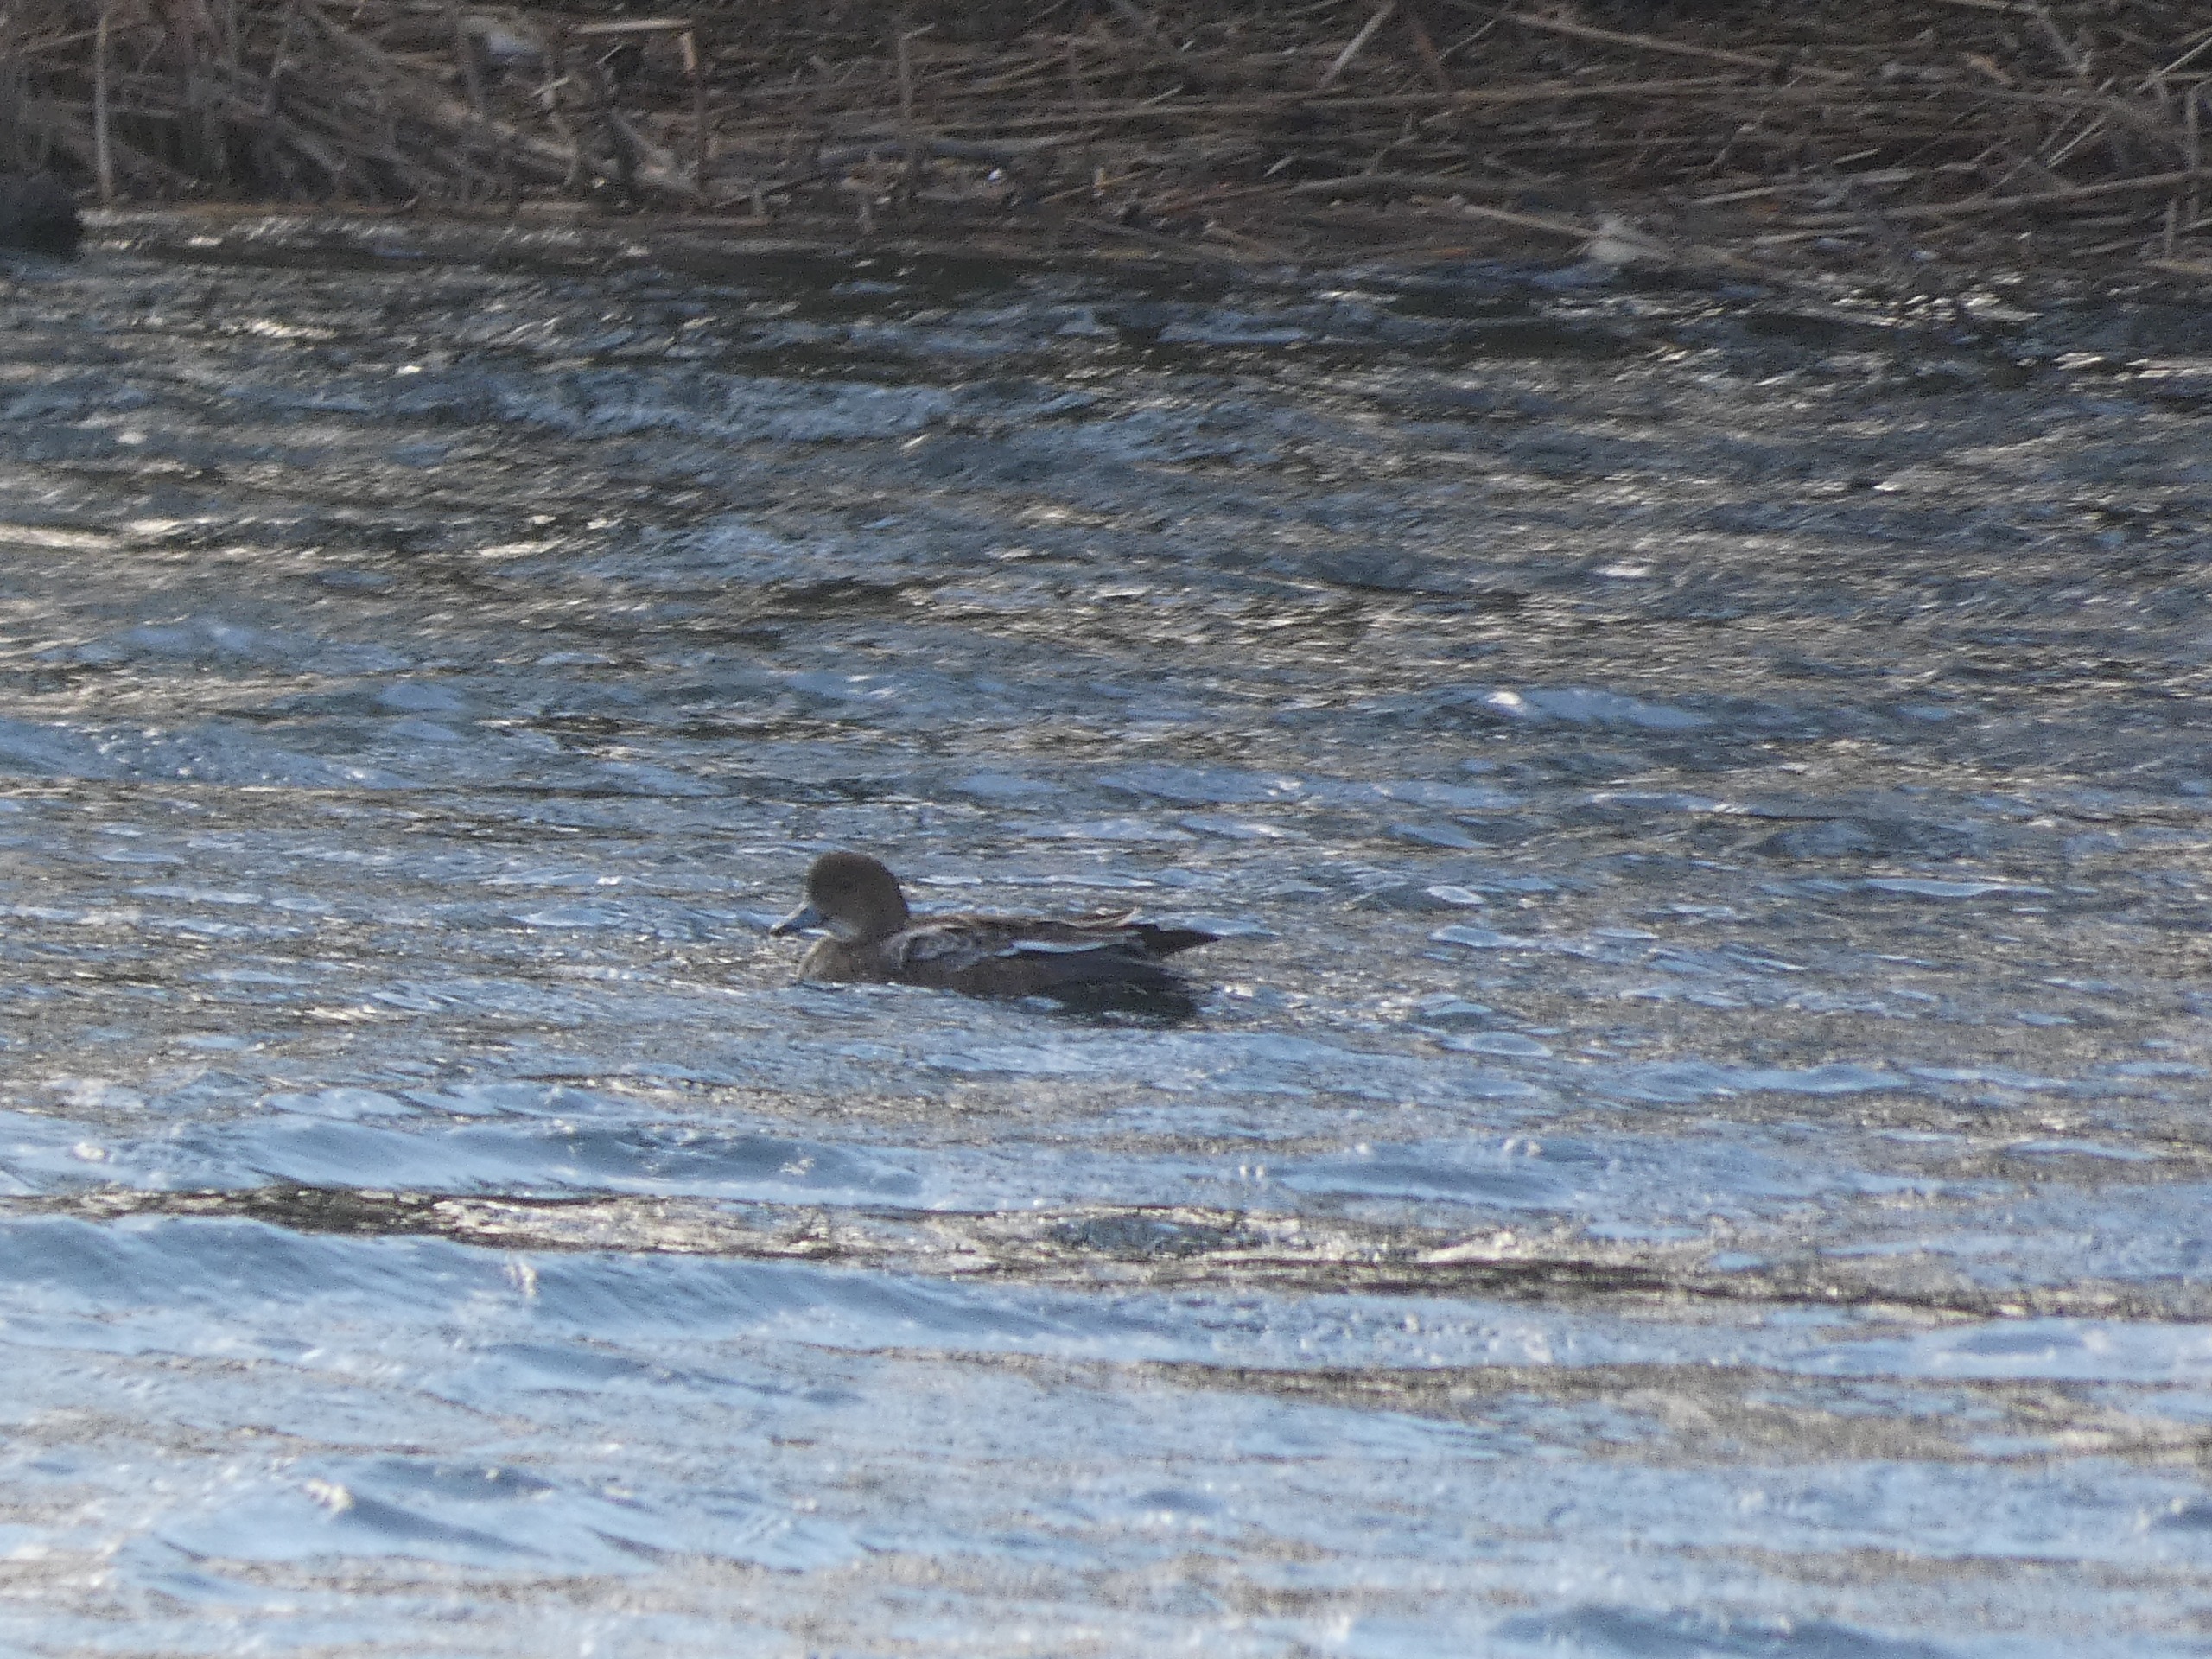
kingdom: Animalia
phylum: Chordata
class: Aves
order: Anseriformes
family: Anatidae
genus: Mareca
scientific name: Mareca penelope
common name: Pibeand
